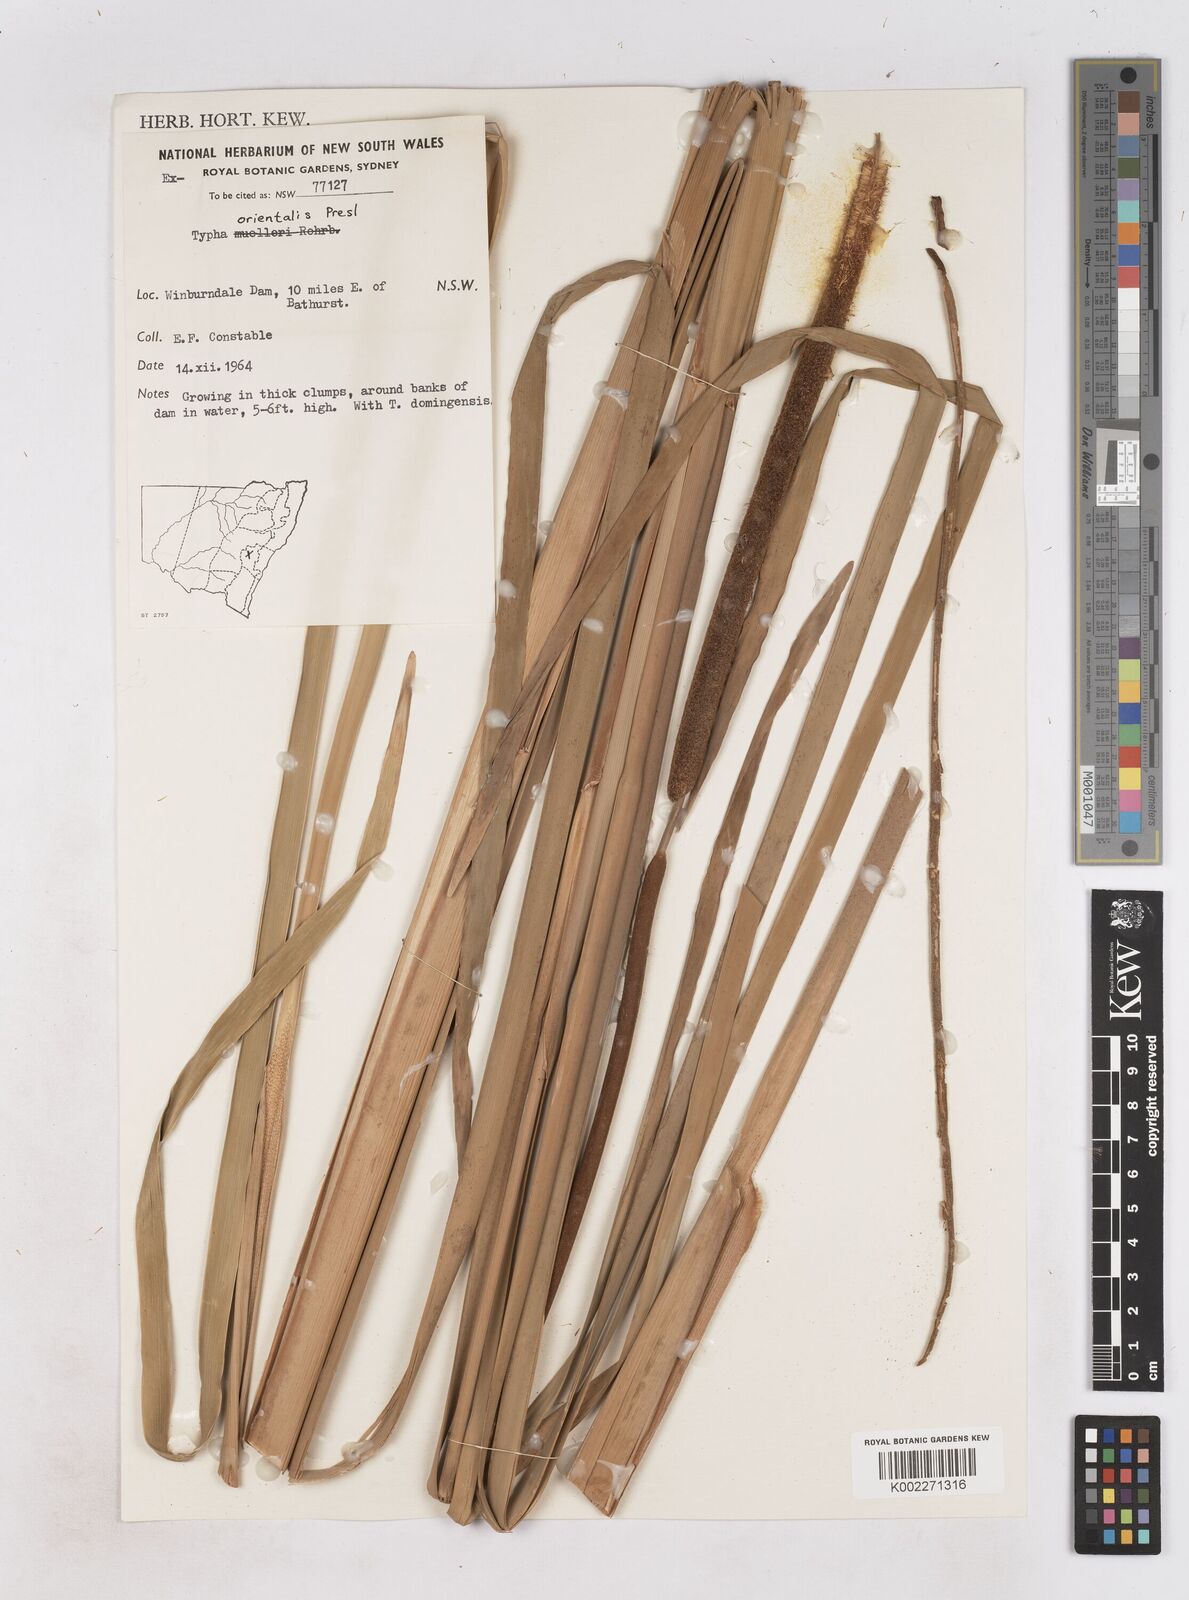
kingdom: Plantae
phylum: Tracheophyta
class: Liliopsida
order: Poales
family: Typhaceae
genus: Typha
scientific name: Typha orientalis
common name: Bullrush
